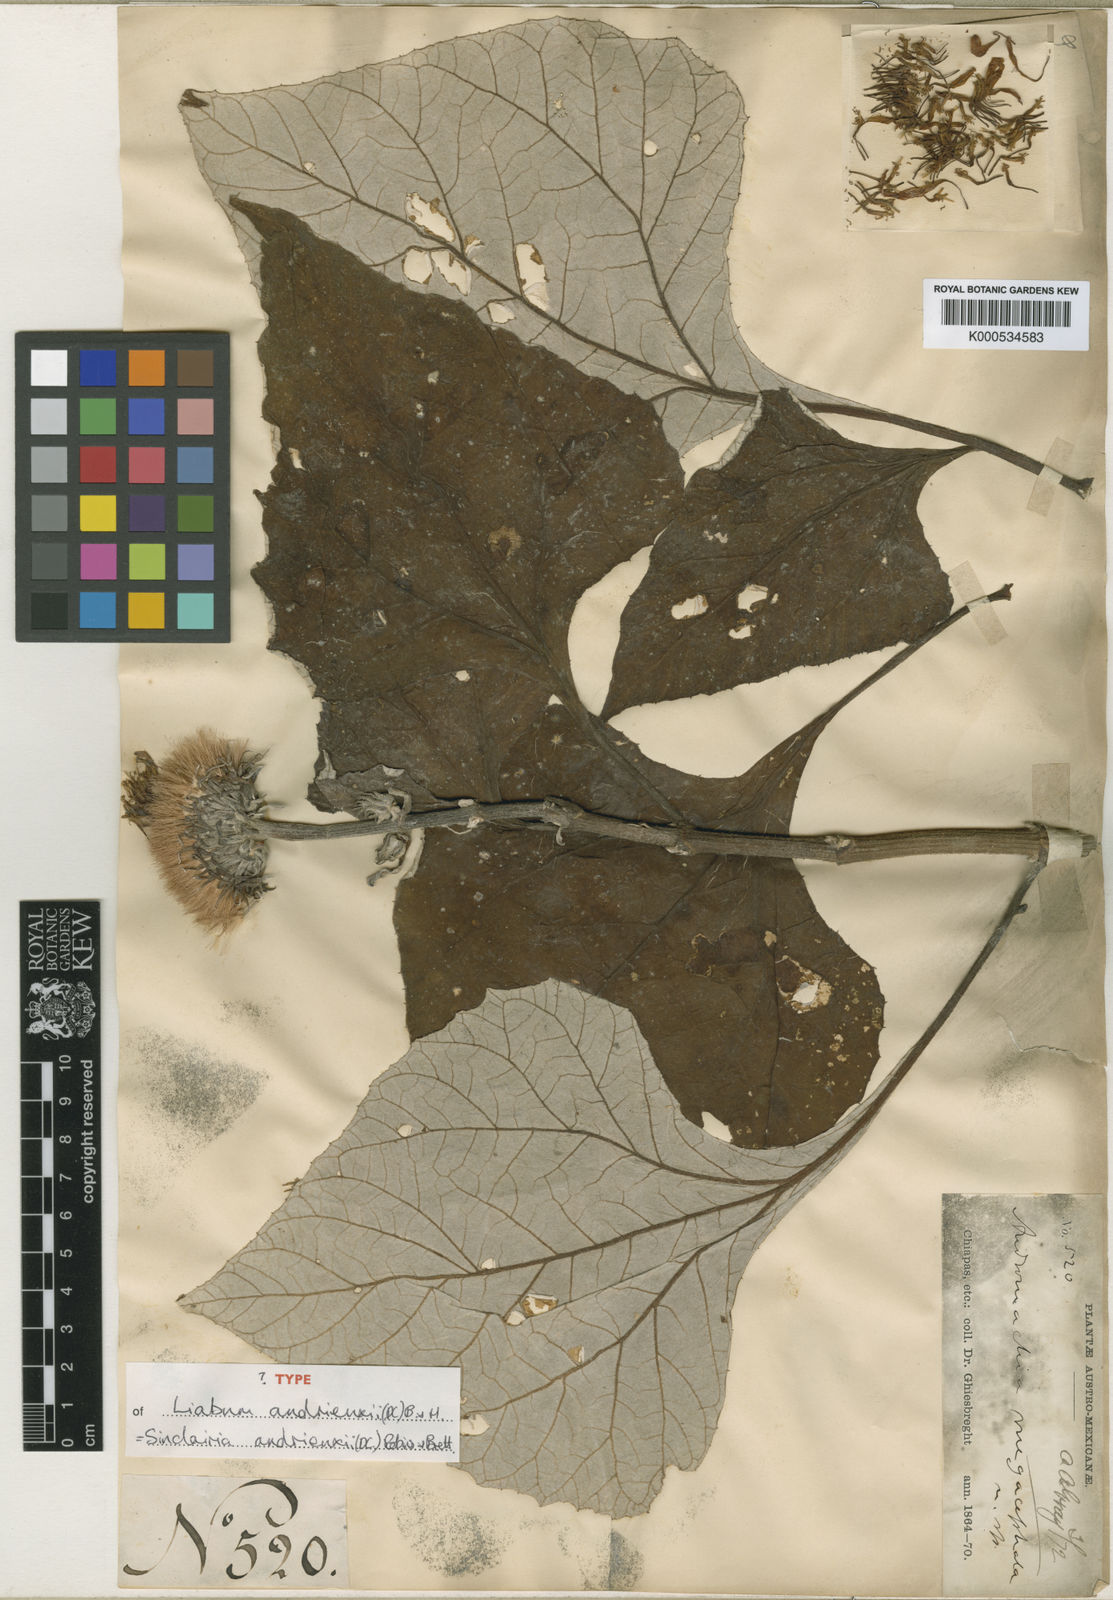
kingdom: Plantae
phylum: Tracheophyta
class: Magnoliopsida
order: Asterales
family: Asteraceae
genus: Sinclairia
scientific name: Sinclairia andrieuxii
